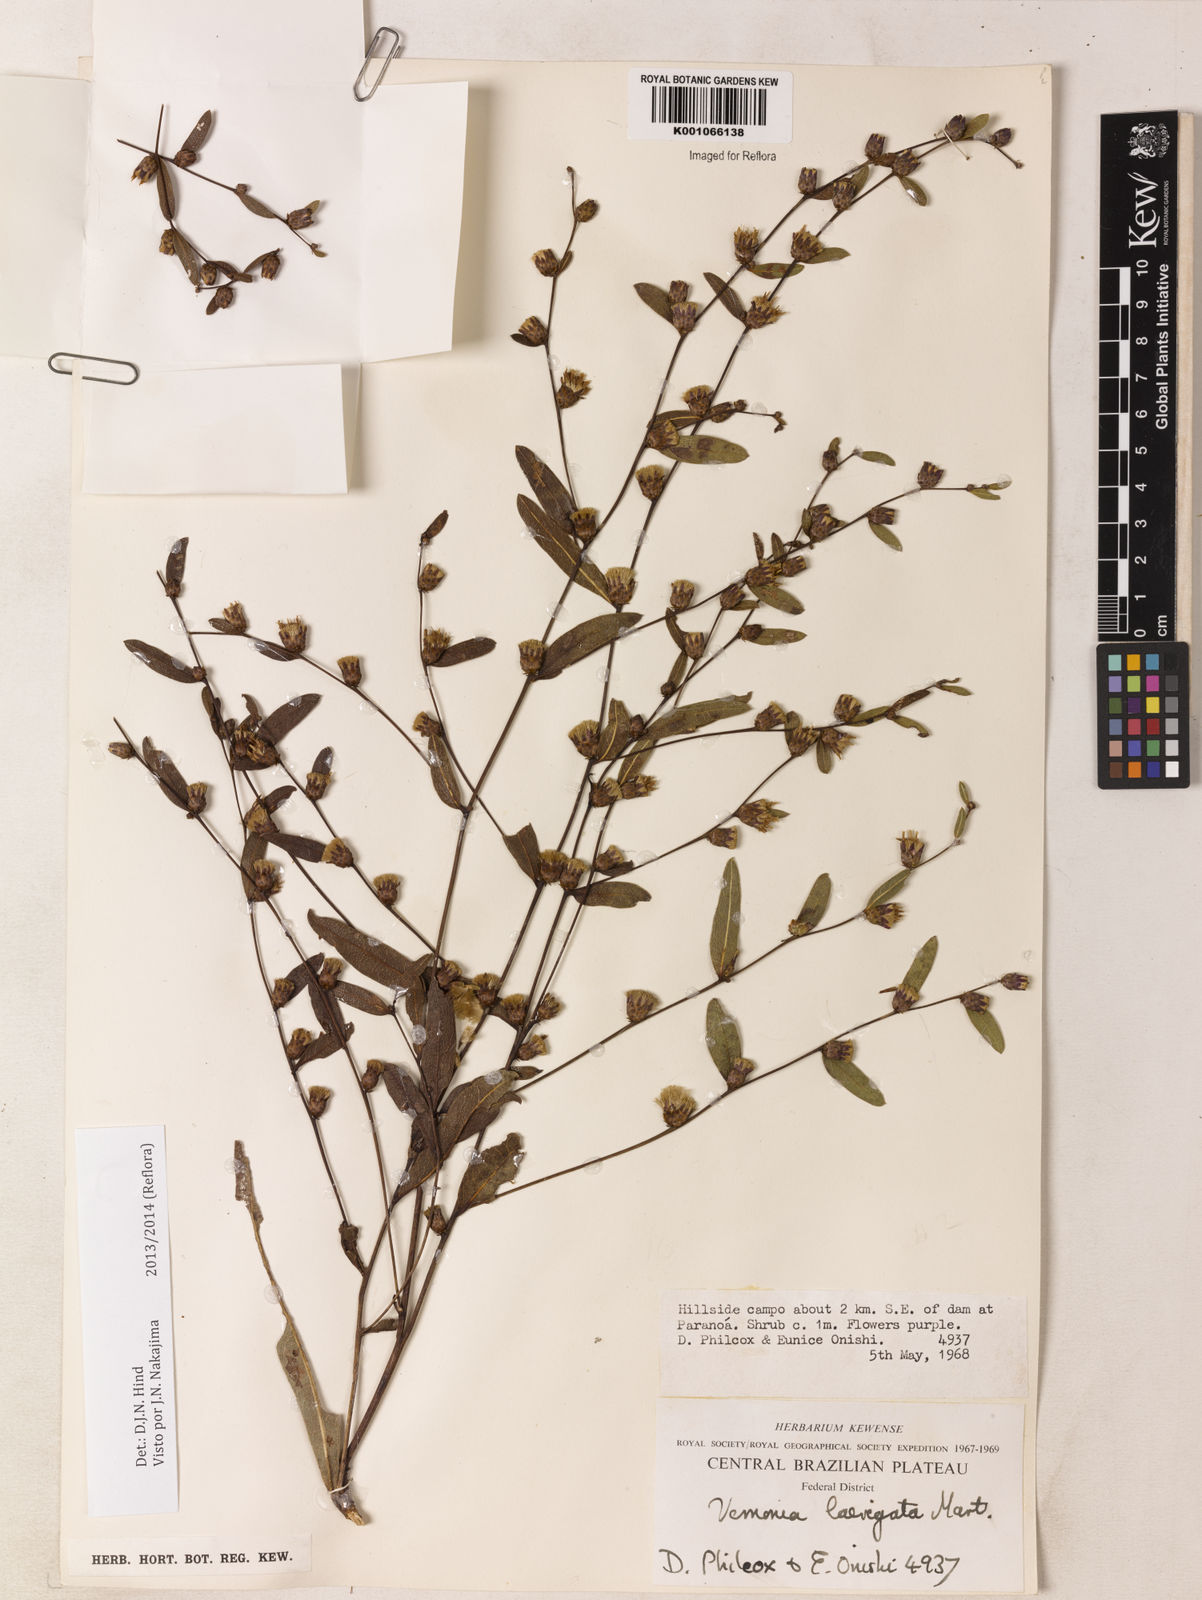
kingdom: Plantae
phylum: Tracheophyta
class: Magnoliopsida
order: Asterales
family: Asteraceae
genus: Lessingianthus
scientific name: Lessingianthus laevigatus
